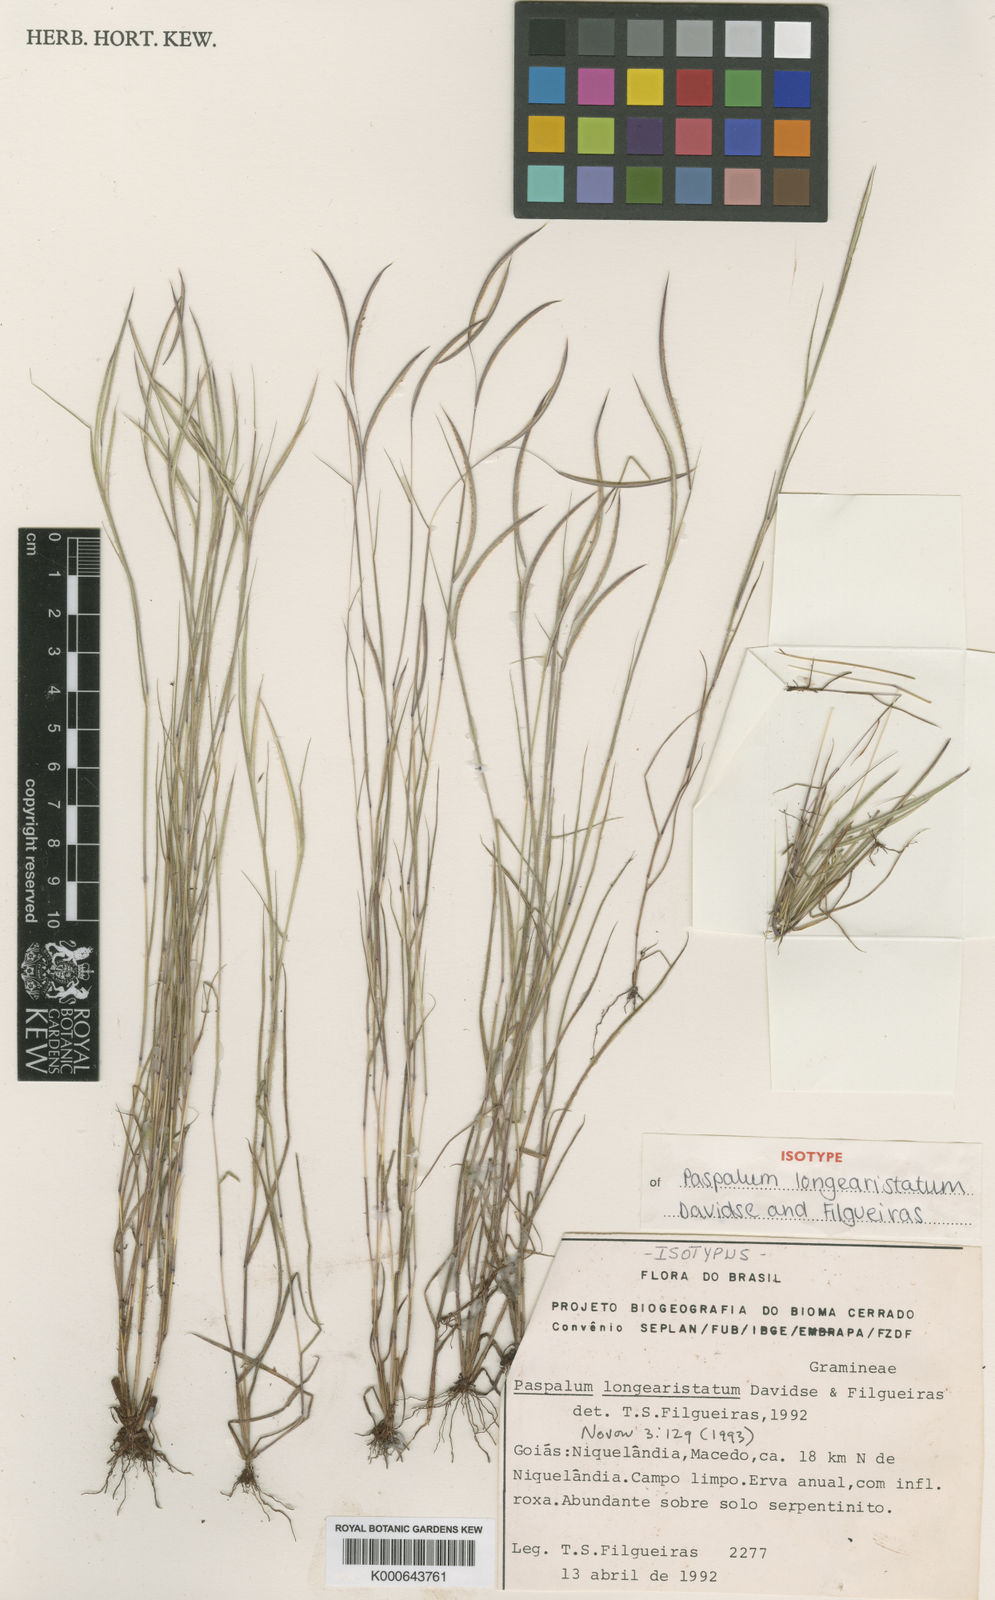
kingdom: Plantae
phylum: Tracheophyta
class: Liliopsida
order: Poales
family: Poaceae
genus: Paspalum
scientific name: Paspalum longiaristatum
